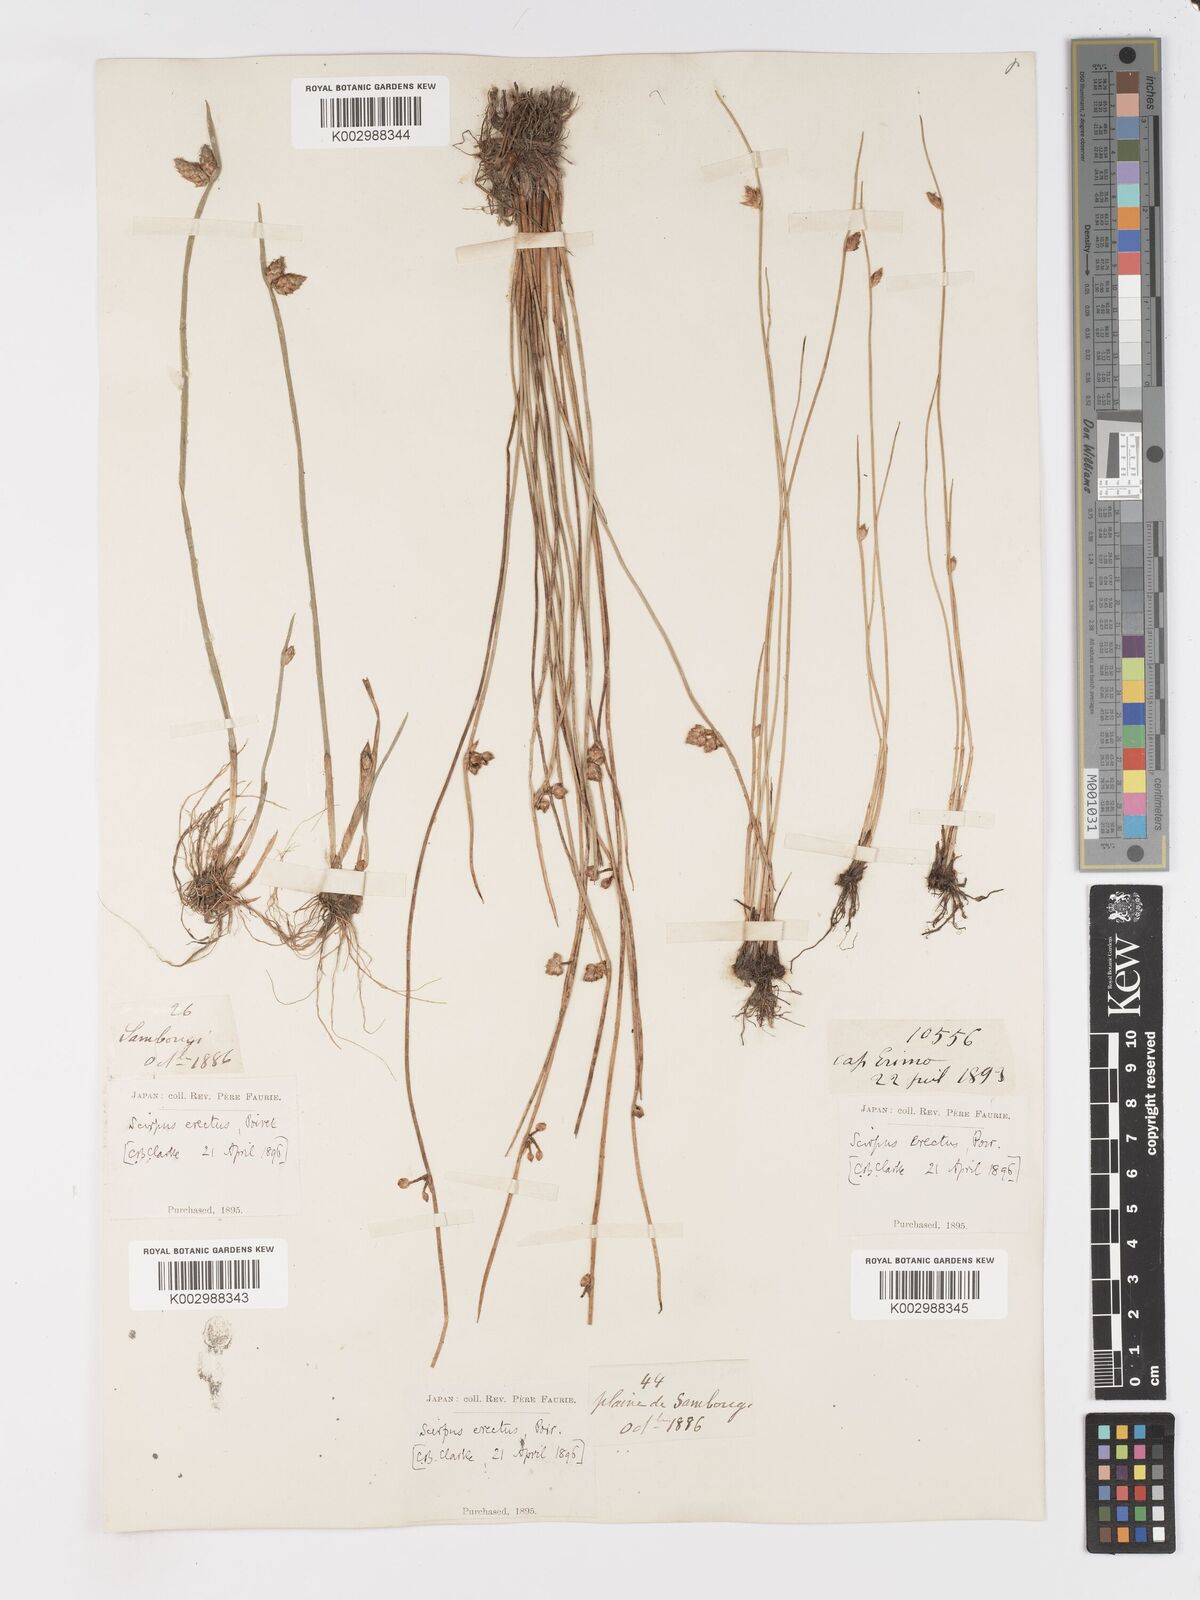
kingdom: Plantae
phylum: Tracheophyta
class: Liliopsida
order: Poales
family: Cyperaceae
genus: Schoenoplectiella
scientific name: Schoenoplectiella juncoides
